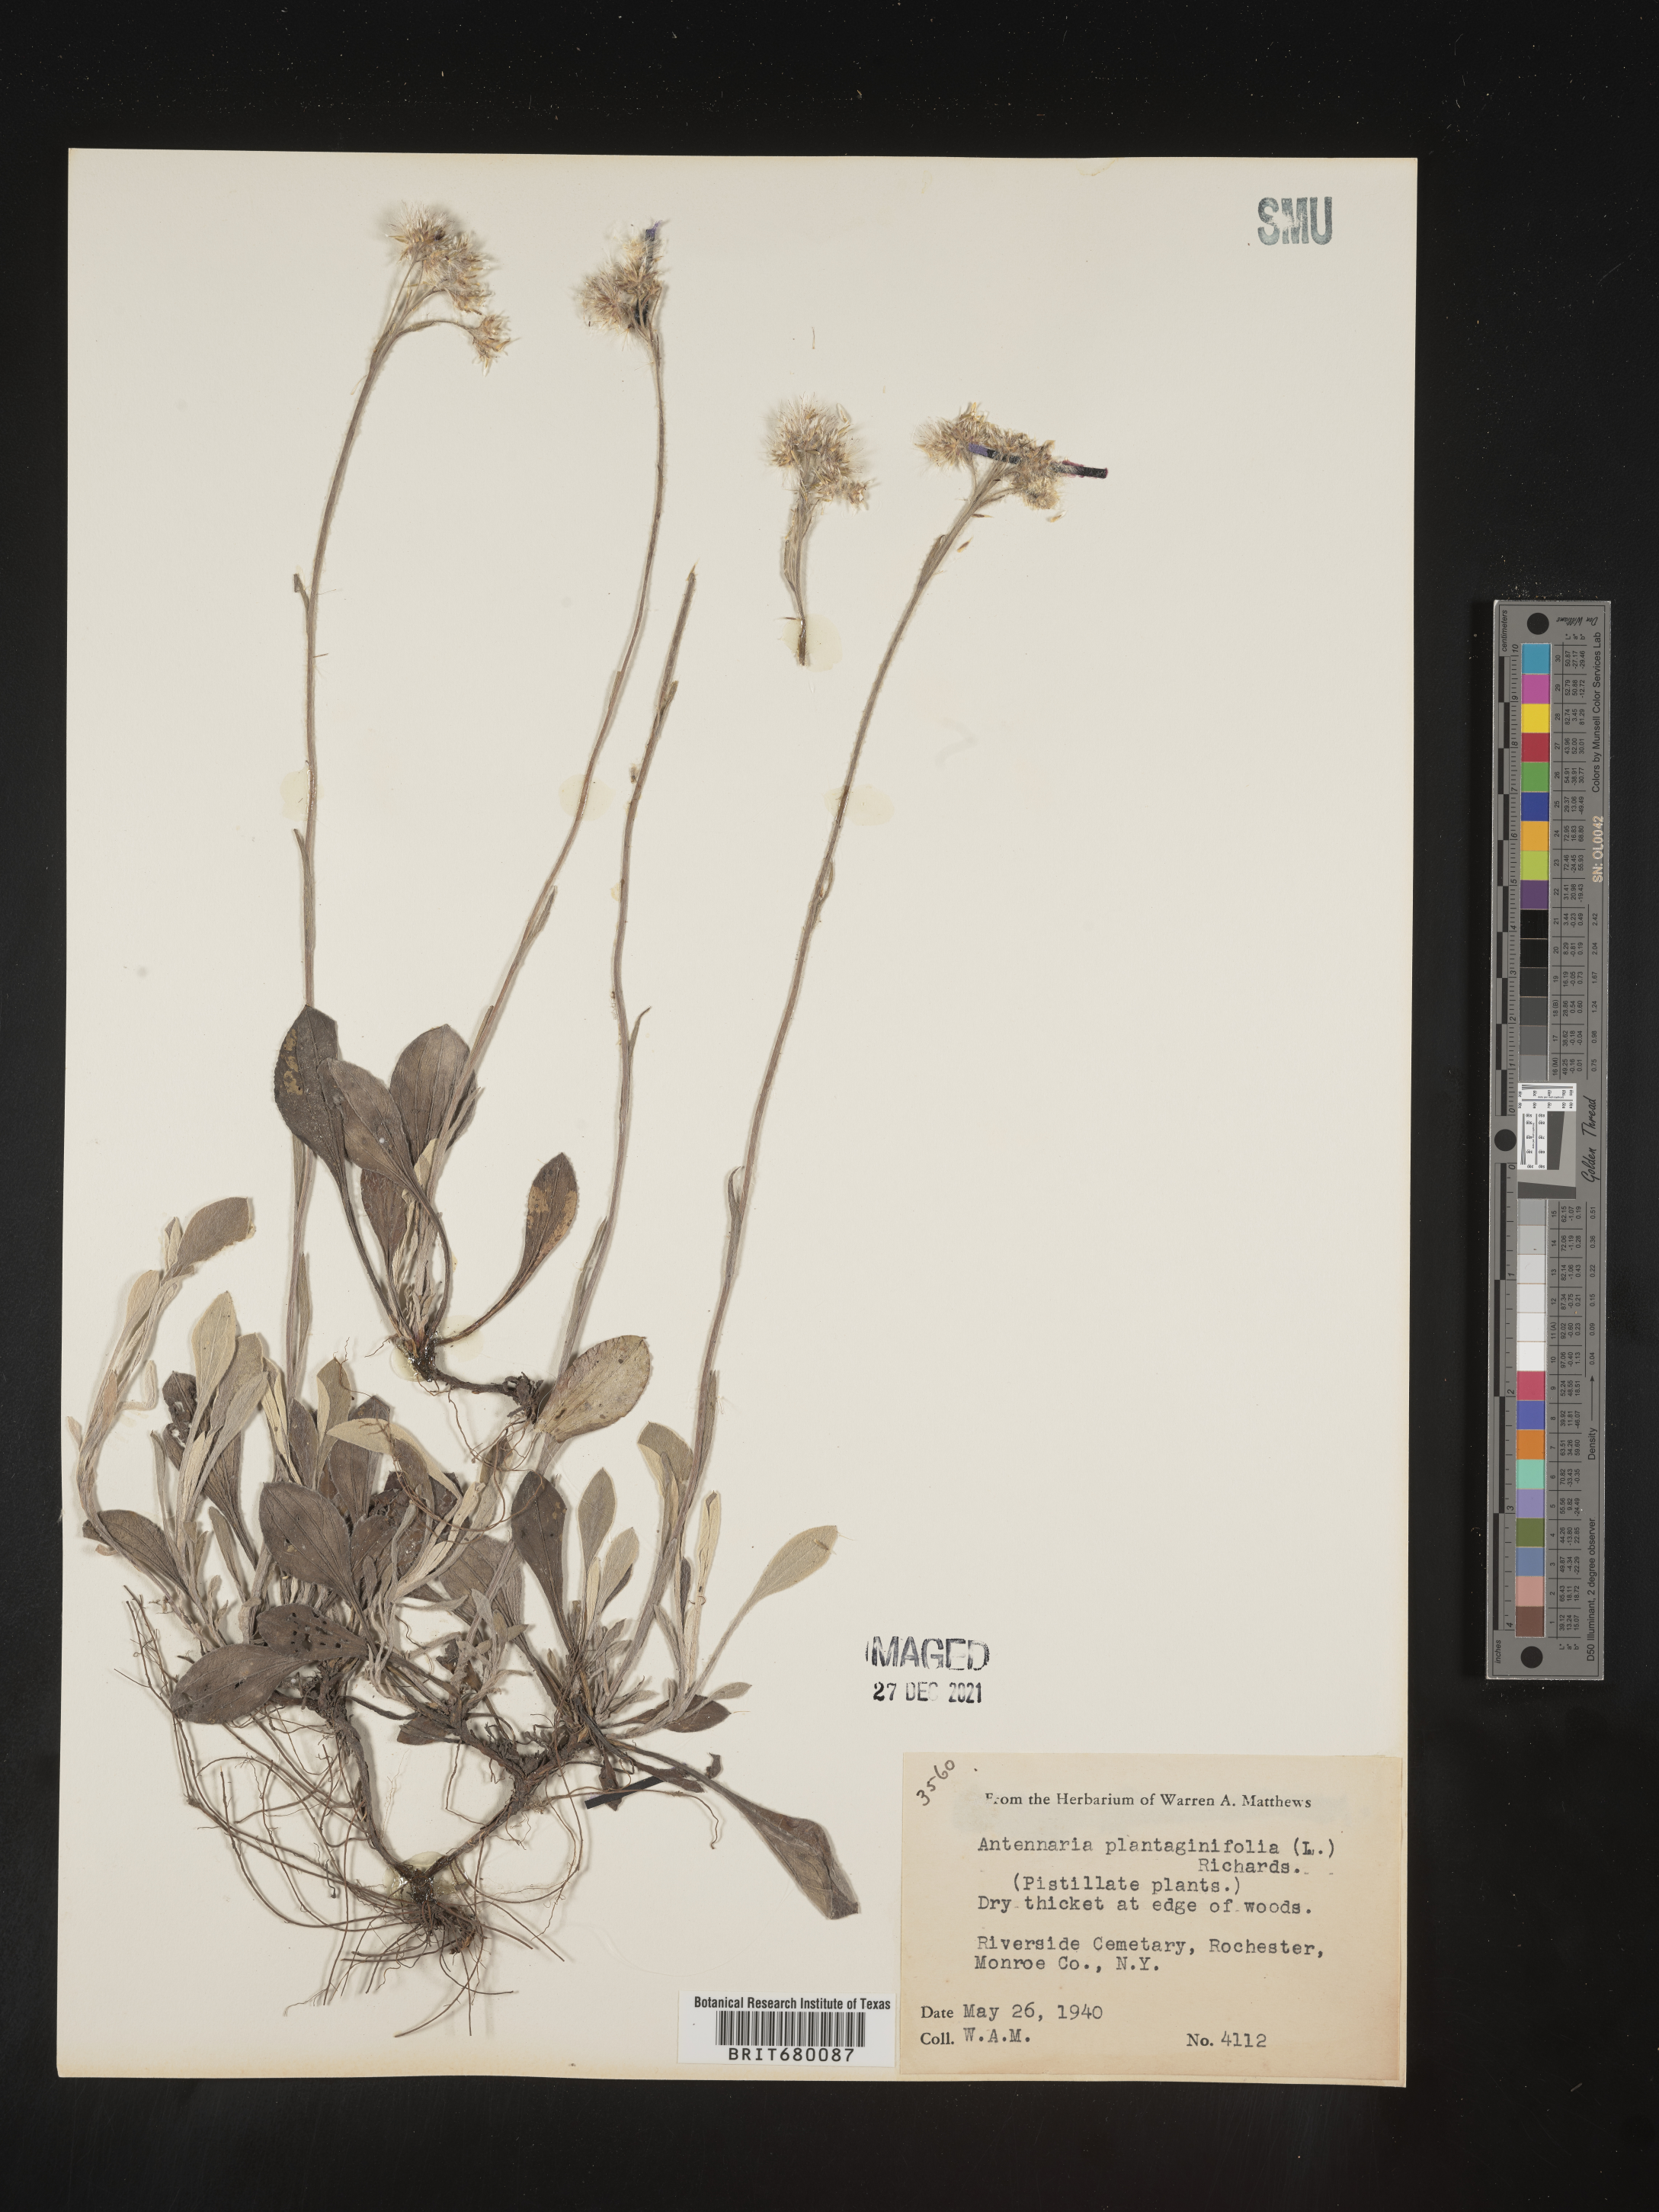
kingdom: Plantae
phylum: Tracheophyta
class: Magnoliopsida
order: Asterales
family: Asteraceae
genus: Antennaria
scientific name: Antennaria plantaginifolia
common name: Plantain-leaved pussytoes
